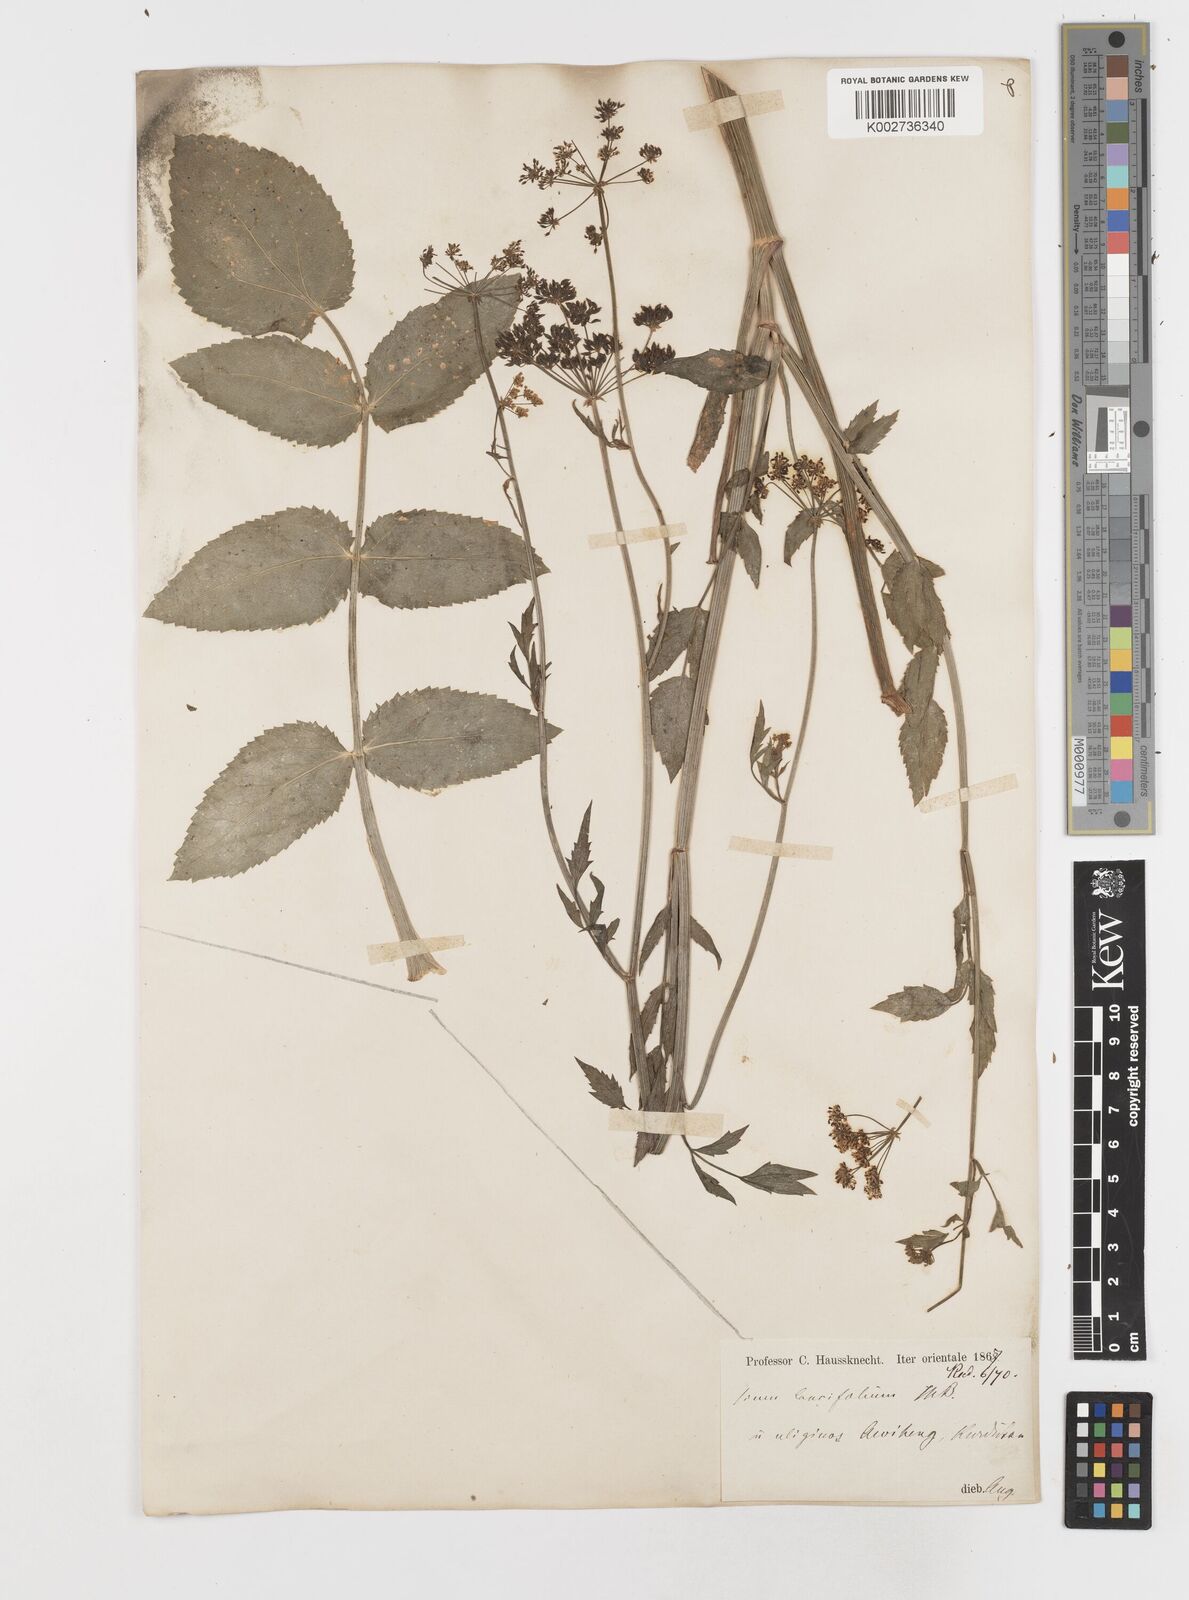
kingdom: Plantae
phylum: Tracheophyta
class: Magnoliopsida
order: Apiales
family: Apiaceae
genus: Sium
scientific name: Sium sisarum
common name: Skirret
